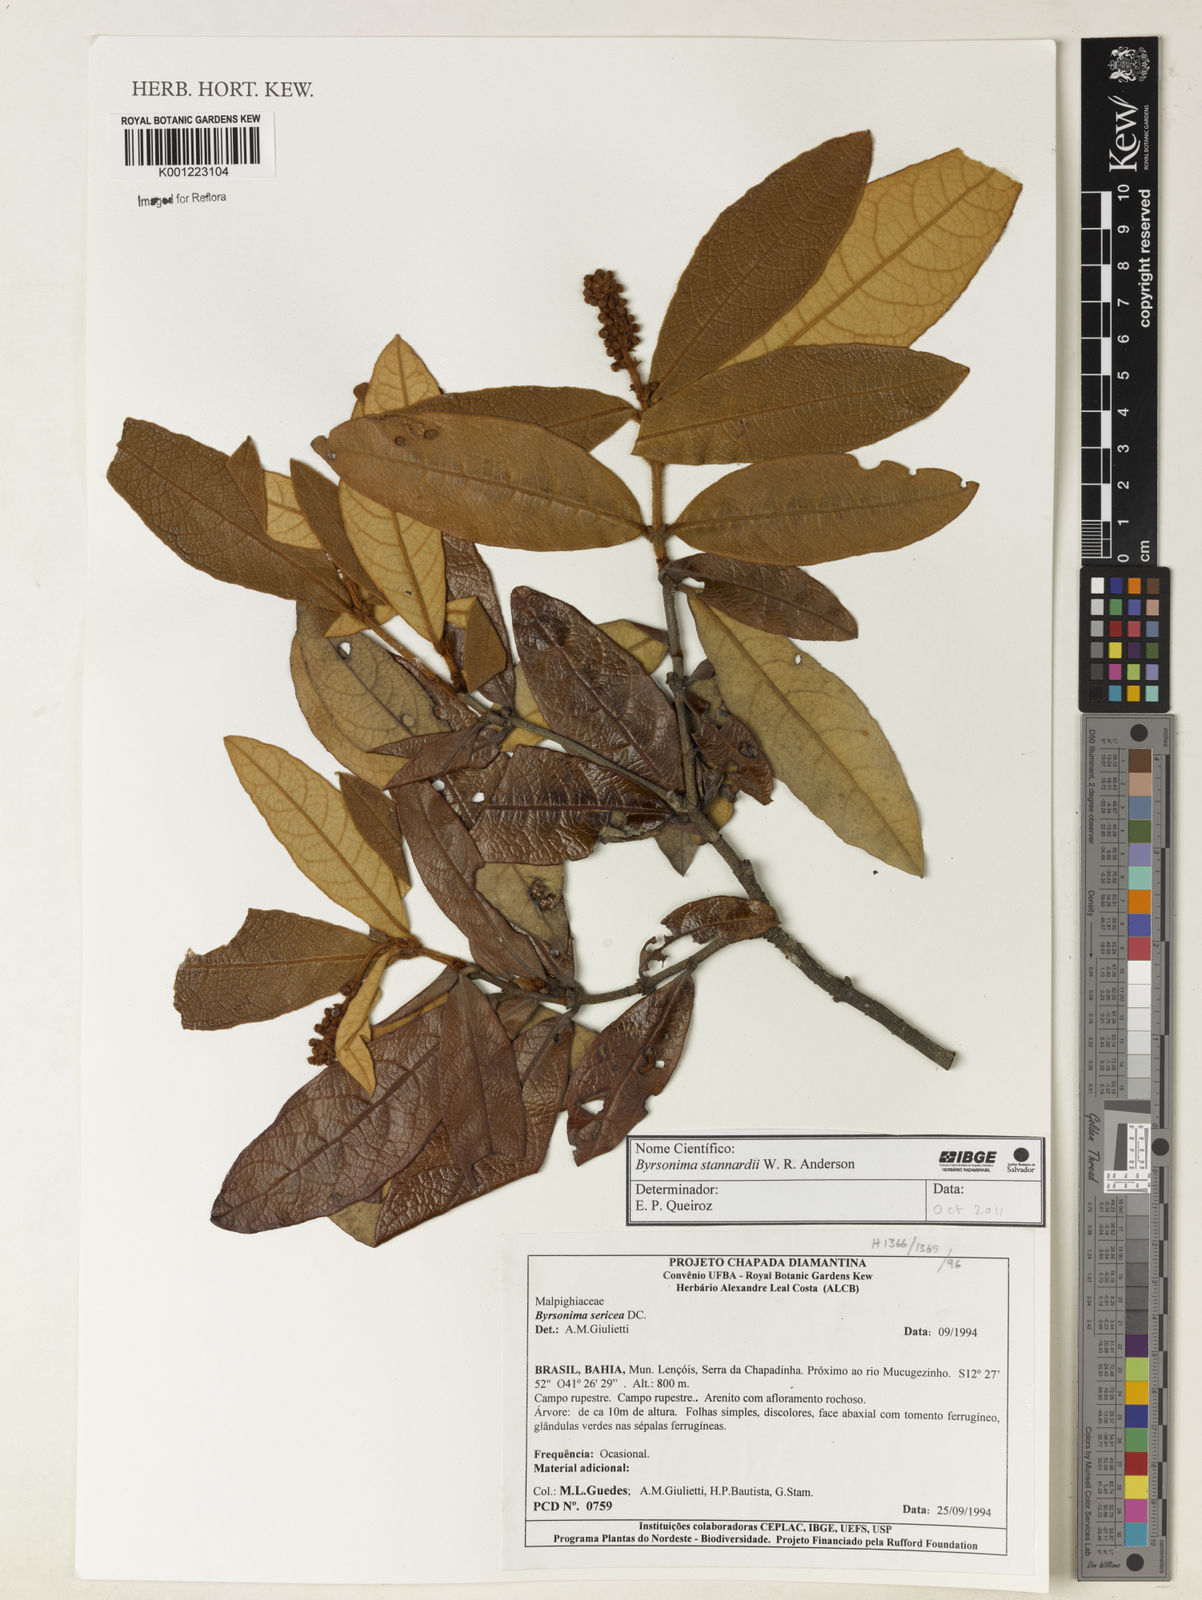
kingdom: Plantae
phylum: Tracheophyta
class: Magnoliopsida
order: Malpighiales
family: Malpighiaceae
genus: Byrsonima
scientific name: Byrsonima stannardii
